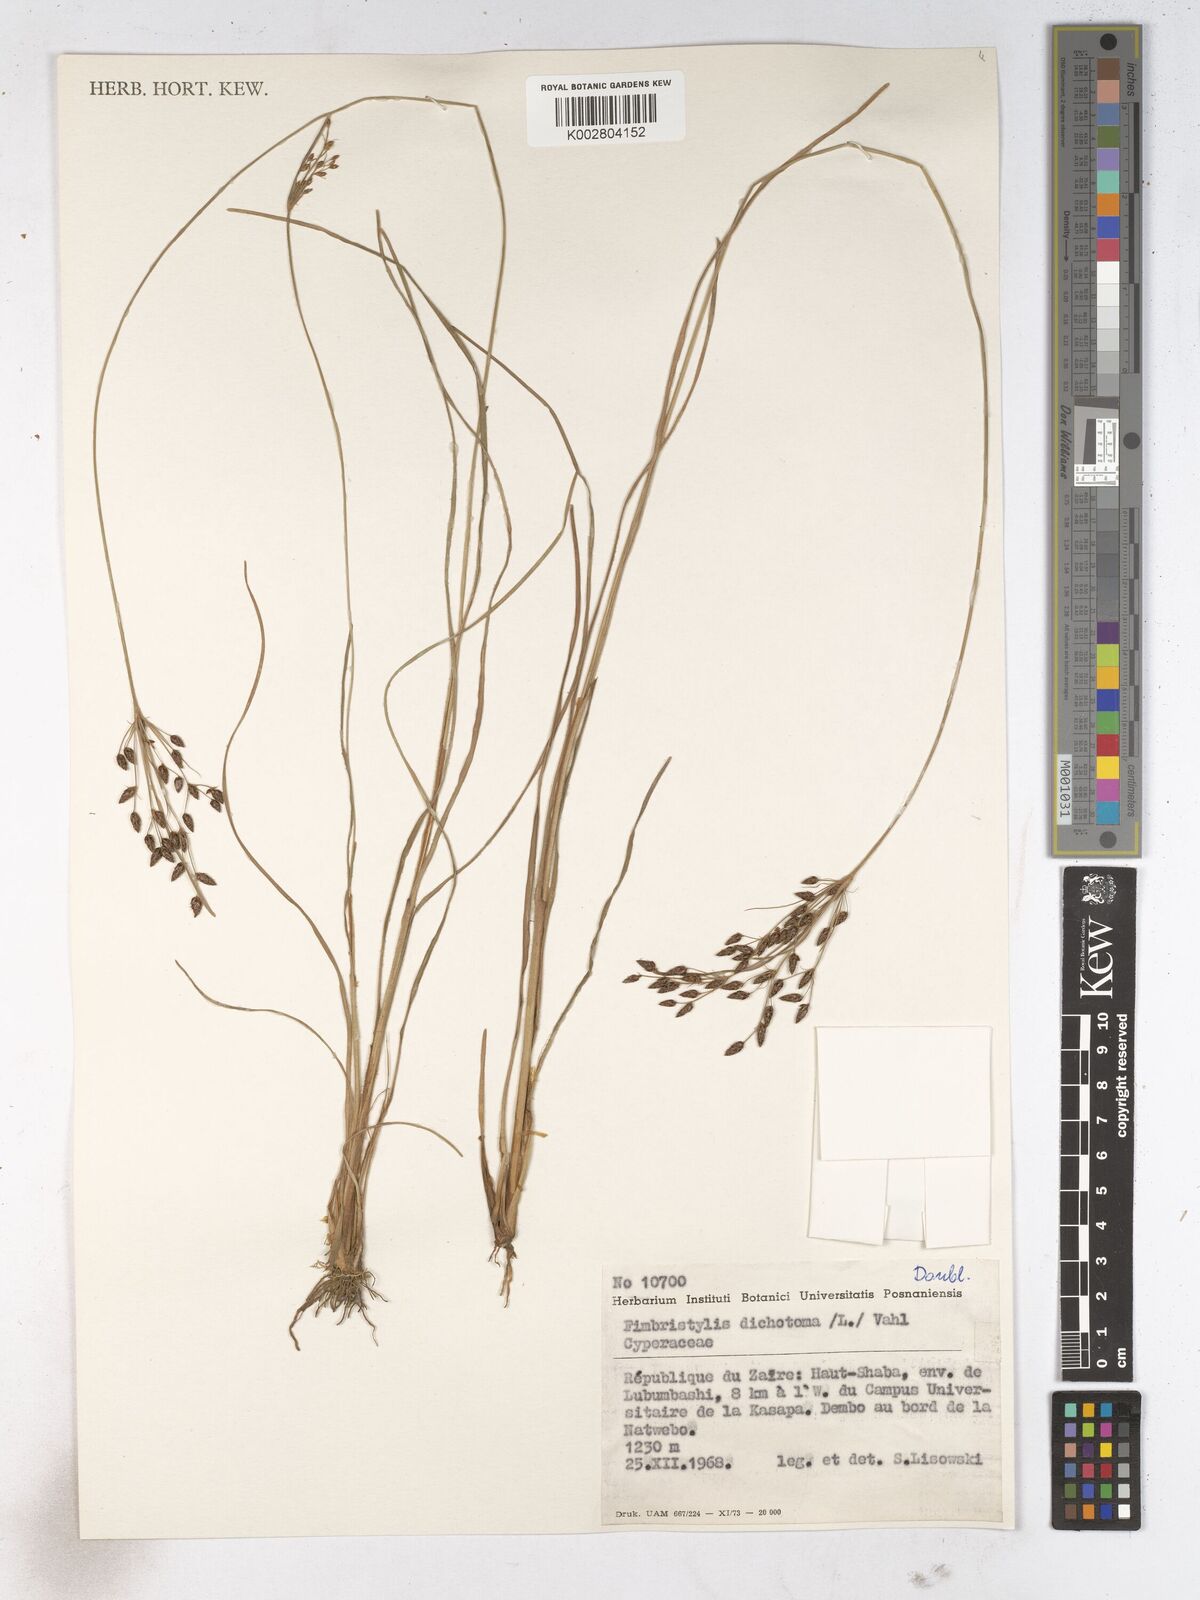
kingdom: Plantae
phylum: Tracheophyta
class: Liliopsida
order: Poales
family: Cyperaceae
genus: Fimbristylis
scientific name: Fimbristylis dichotoma
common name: Forked fimbry
